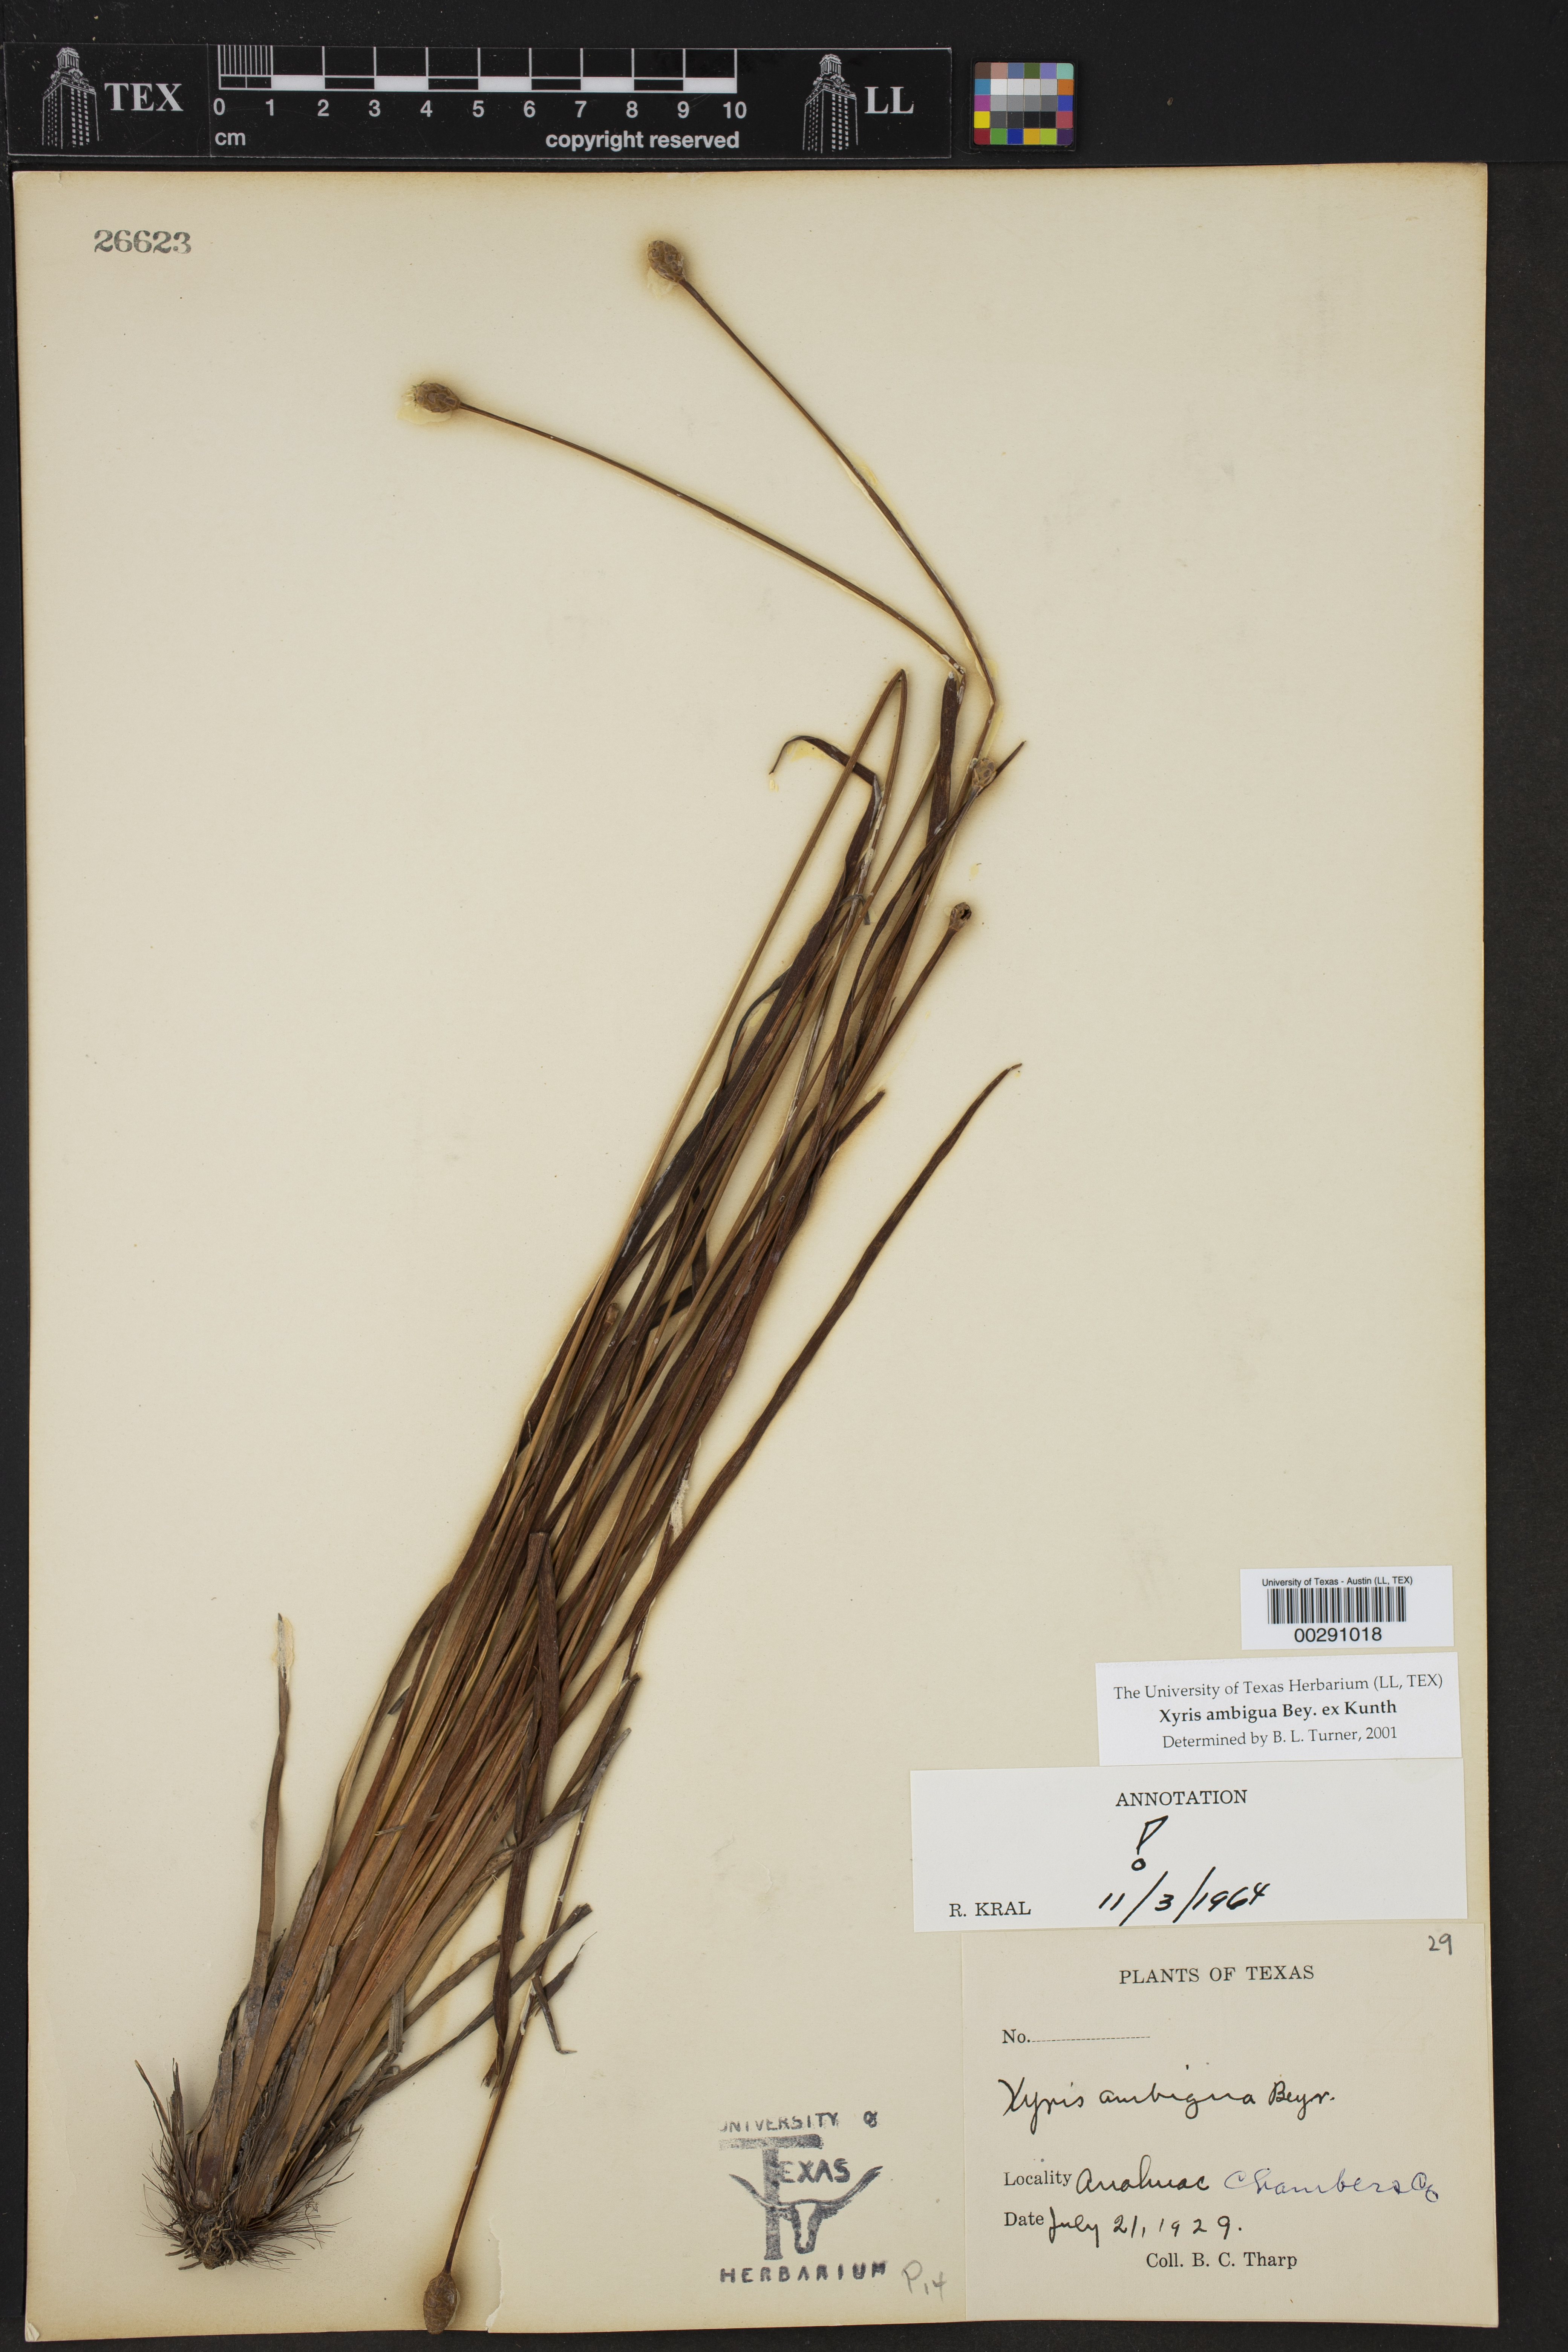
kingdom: Plantae
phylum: Tracheophyta
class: Liliopsida
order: Poales
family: Xyridaceae
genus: Xyris
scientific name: Xyris ambigua
